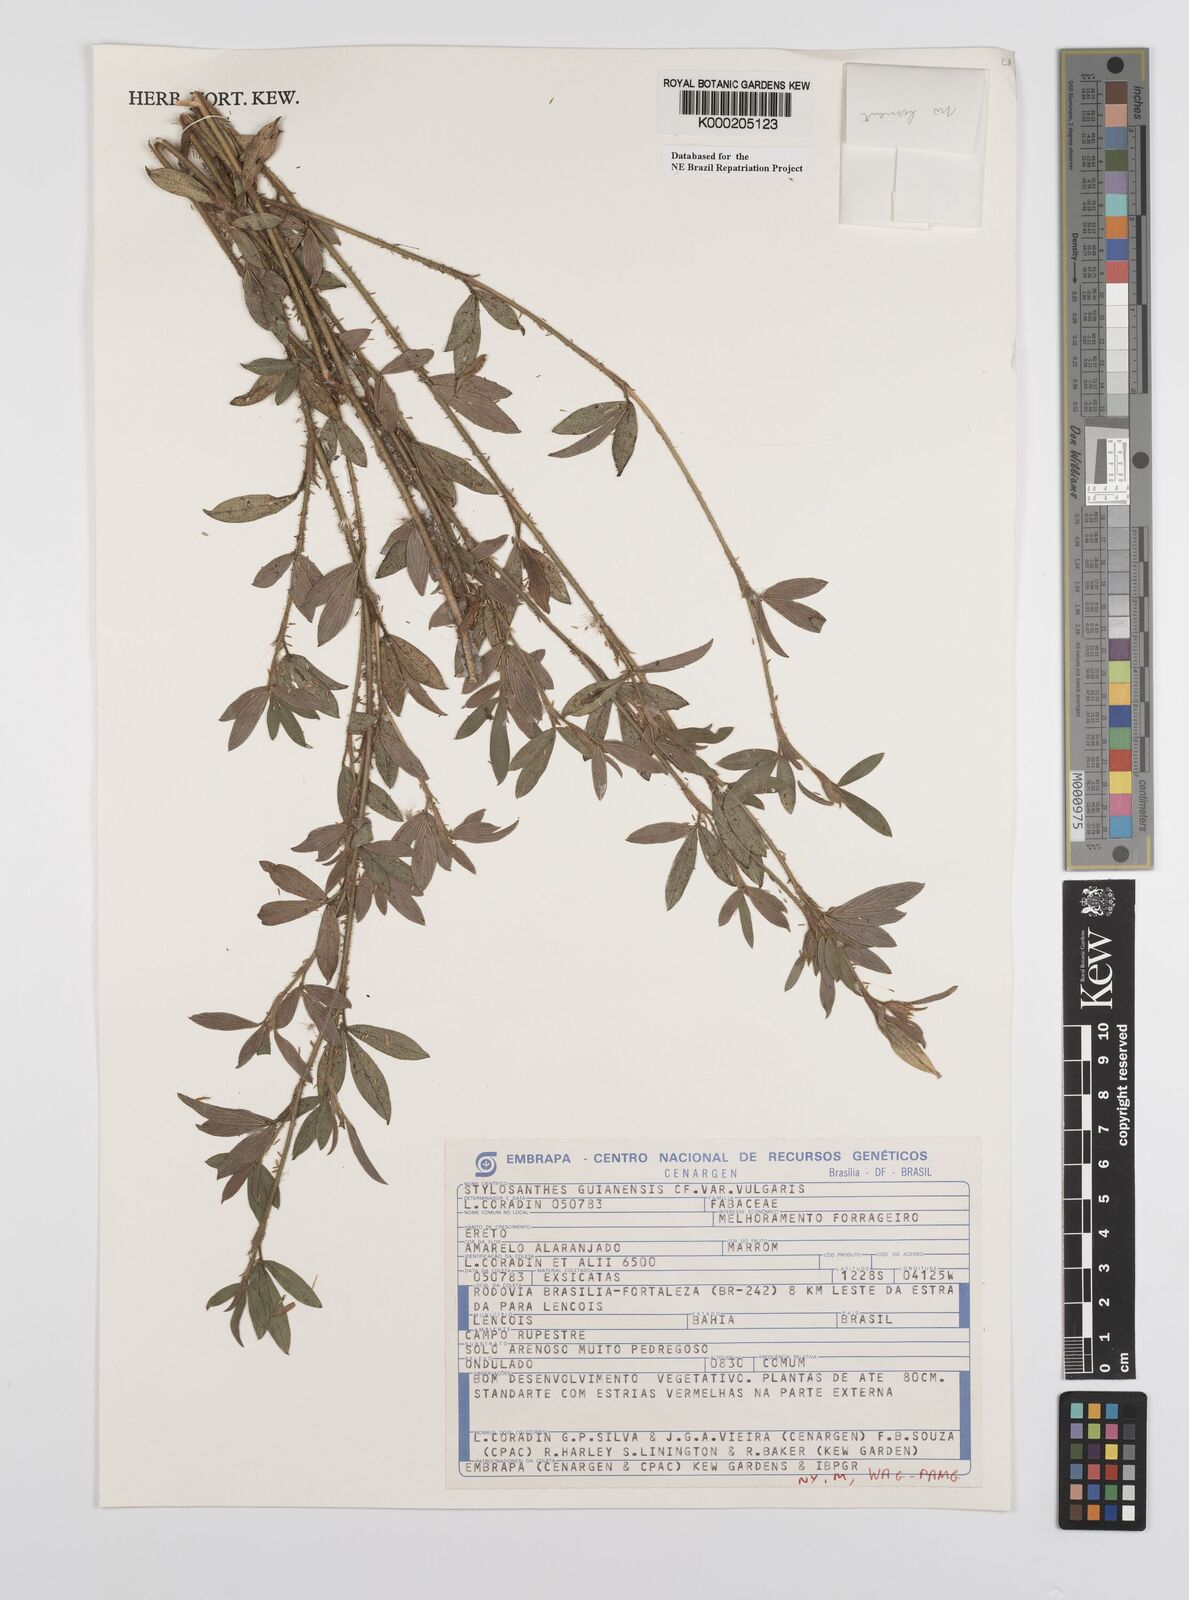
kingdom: Plantae
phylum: Tracheophyta
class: Magnoliopsida
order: Fabales
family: Fabaceae
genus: Stylosanthes
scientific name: Stylosanthes guianensis
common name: Pencil flower
